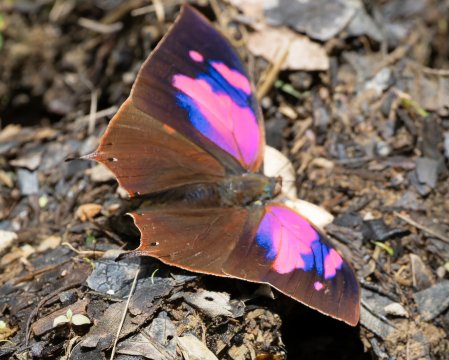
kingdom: Animalia
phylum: Arthropoda
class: Insecta
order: Lepidoptera
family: Nymphalidae
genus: Fountainea
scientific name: Fountainea
